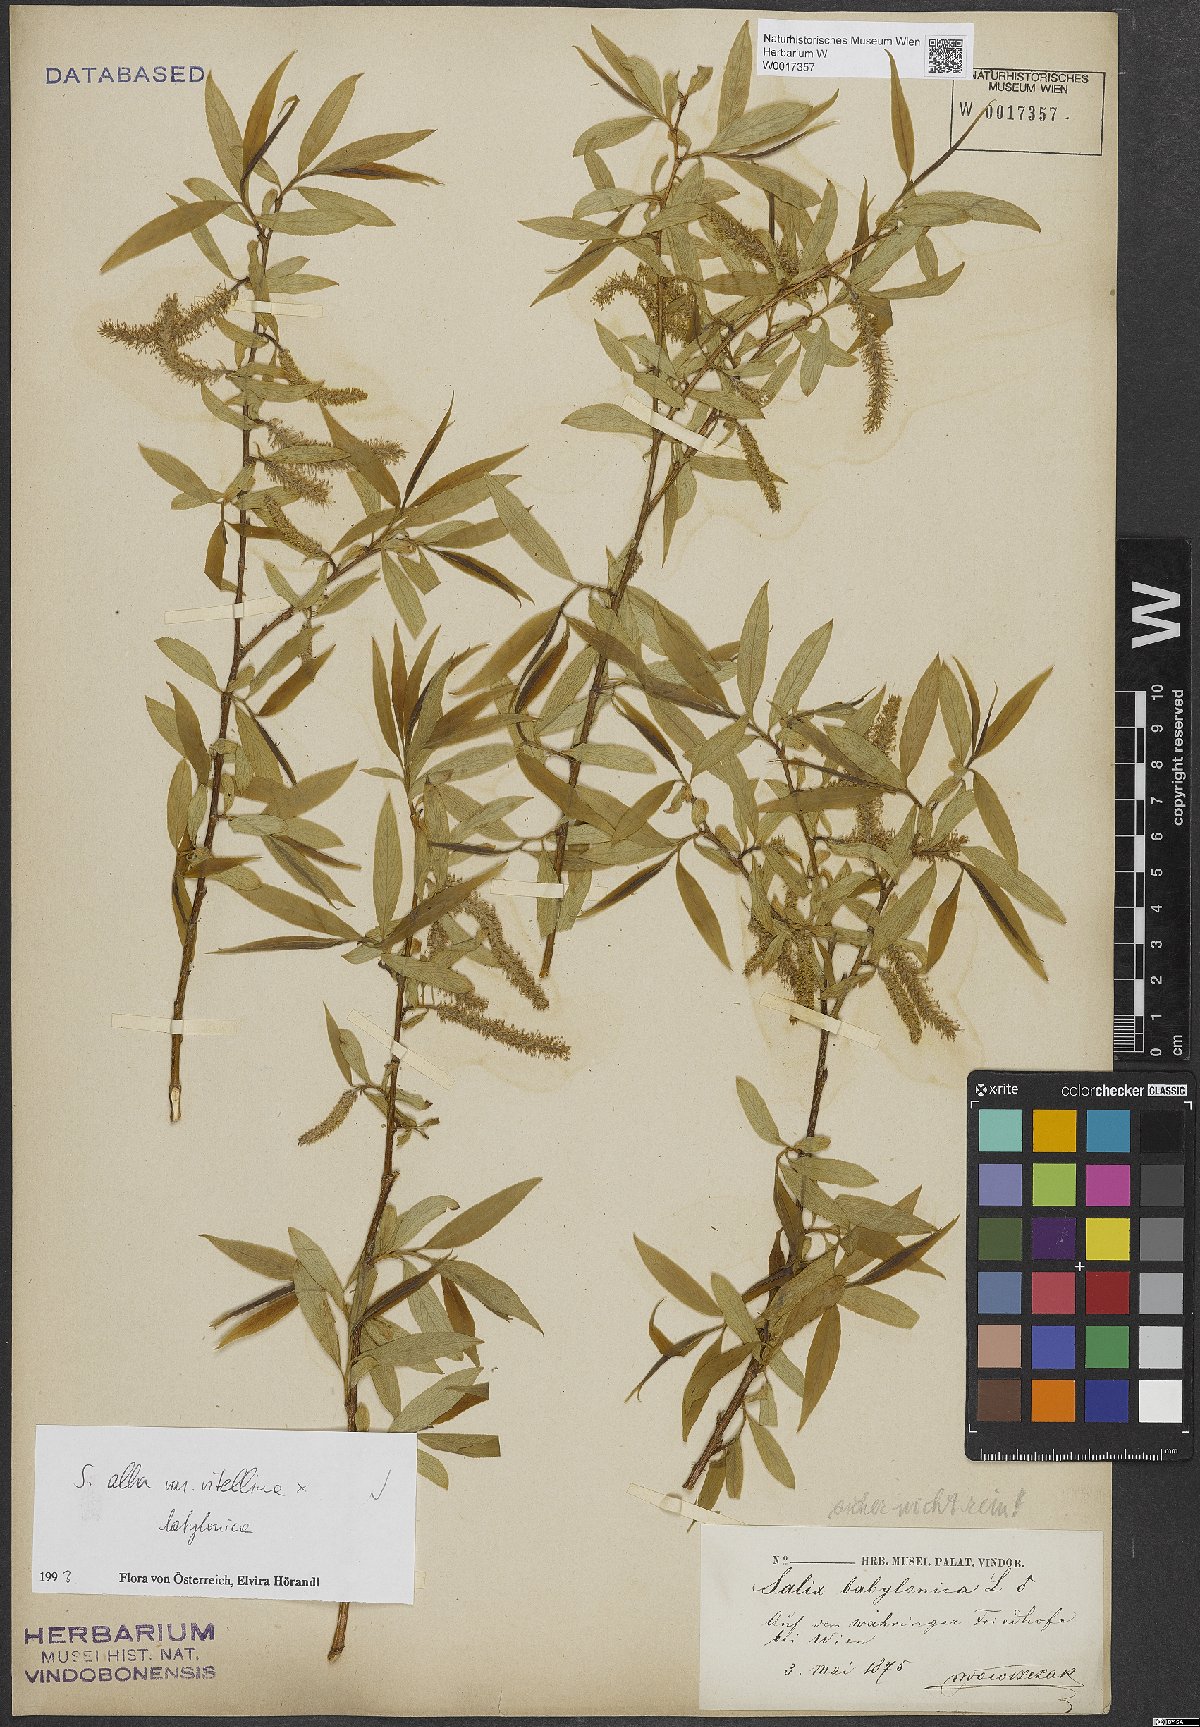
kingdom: Plantae
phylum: Tracheophyta
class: Magnoliopsida
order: Malpighiales
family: Salicaceae
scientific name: Salicaceae
